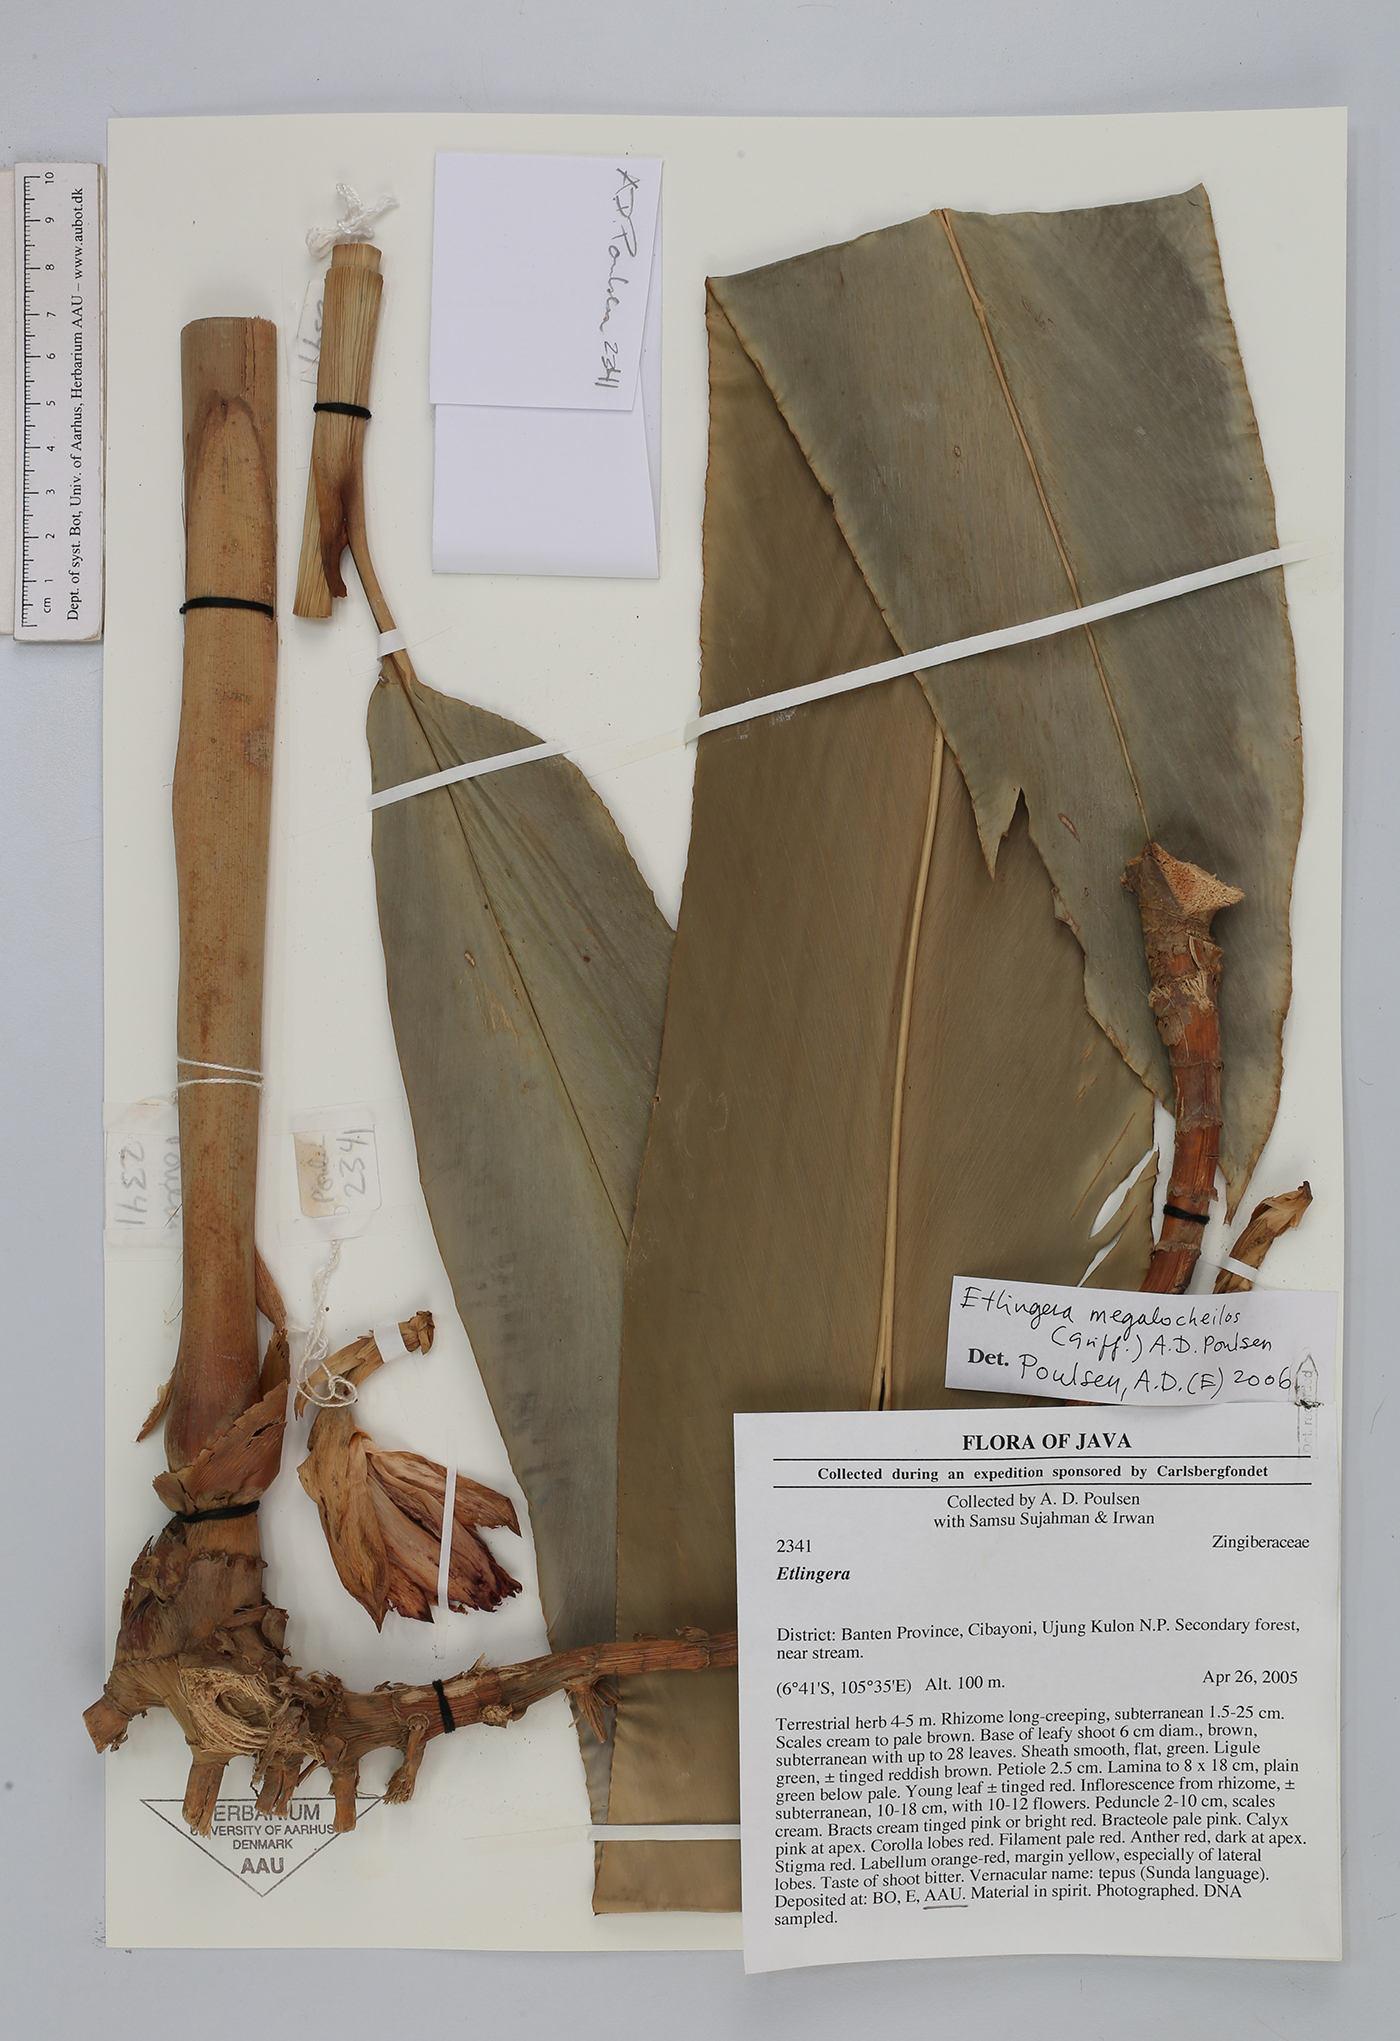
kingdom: Plantae
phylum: Tracheophyta
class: Liliopsida
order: Zingiberales
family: Zingiberaceae
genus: Etlingera
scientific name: Etlingera megalocheilos
